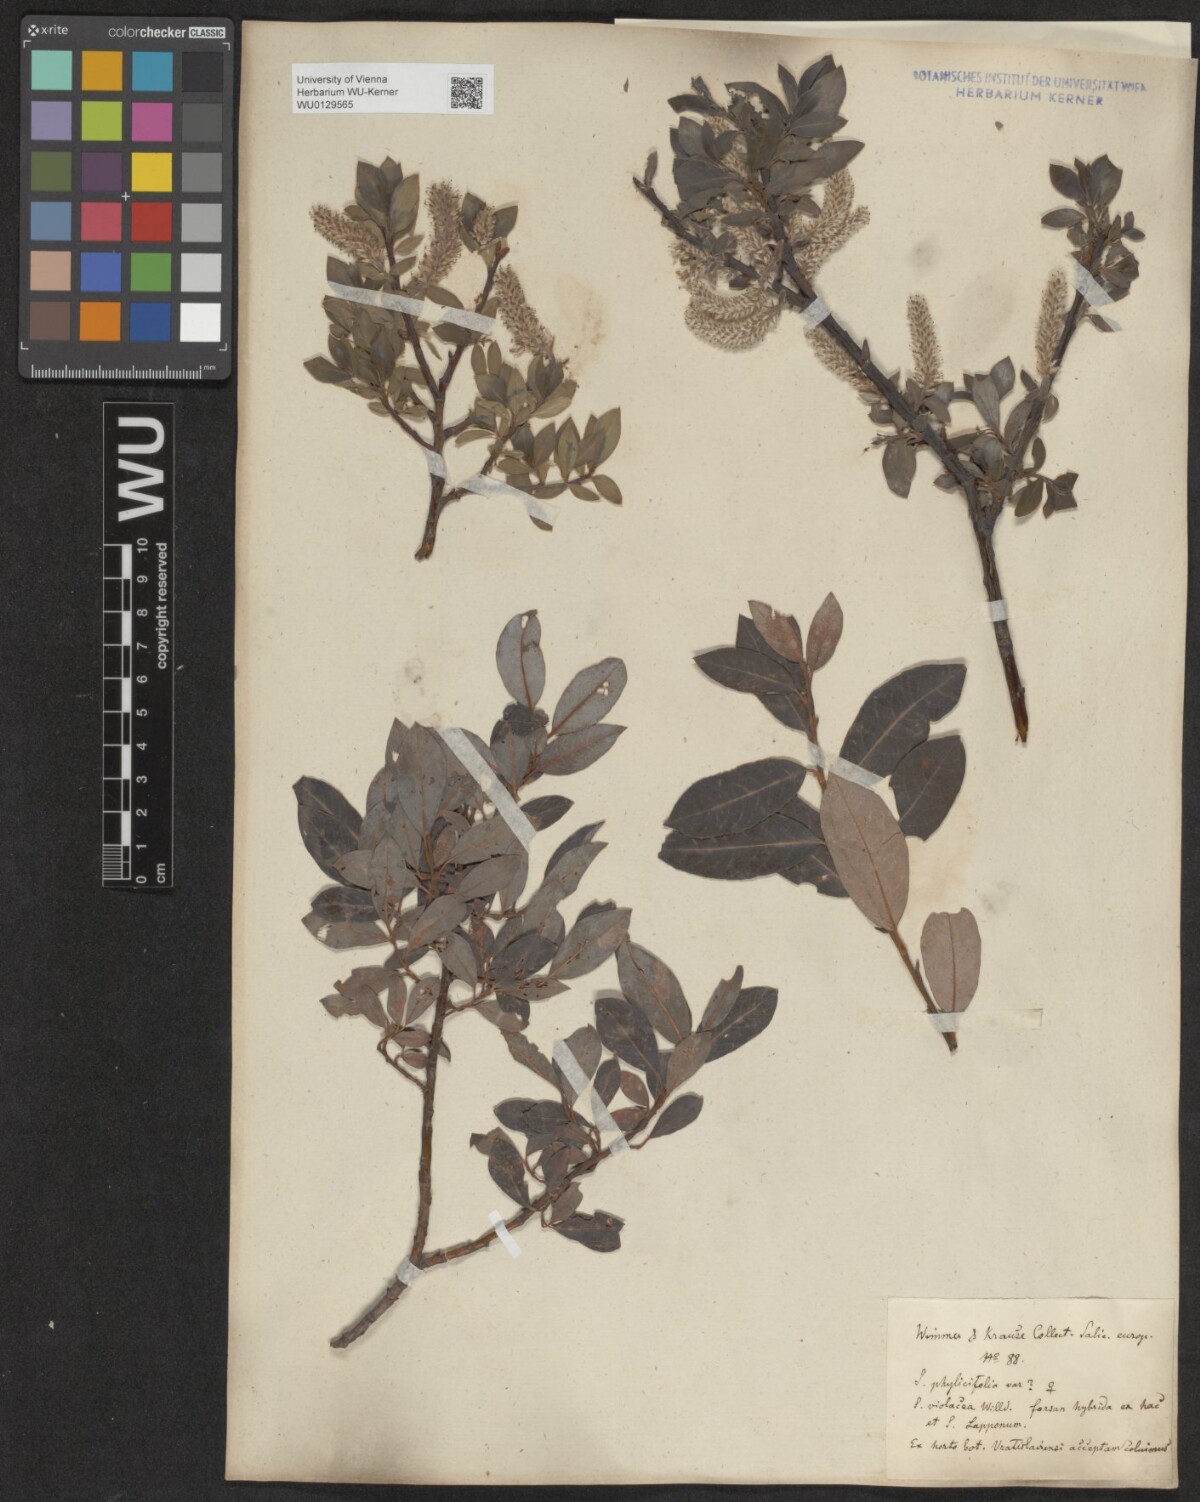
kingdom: Plantae
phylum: Tracheophyta
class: Magnoliopsida
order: Malpighiales
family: Salicaceae
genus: Salix
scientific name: Salix bicolor
